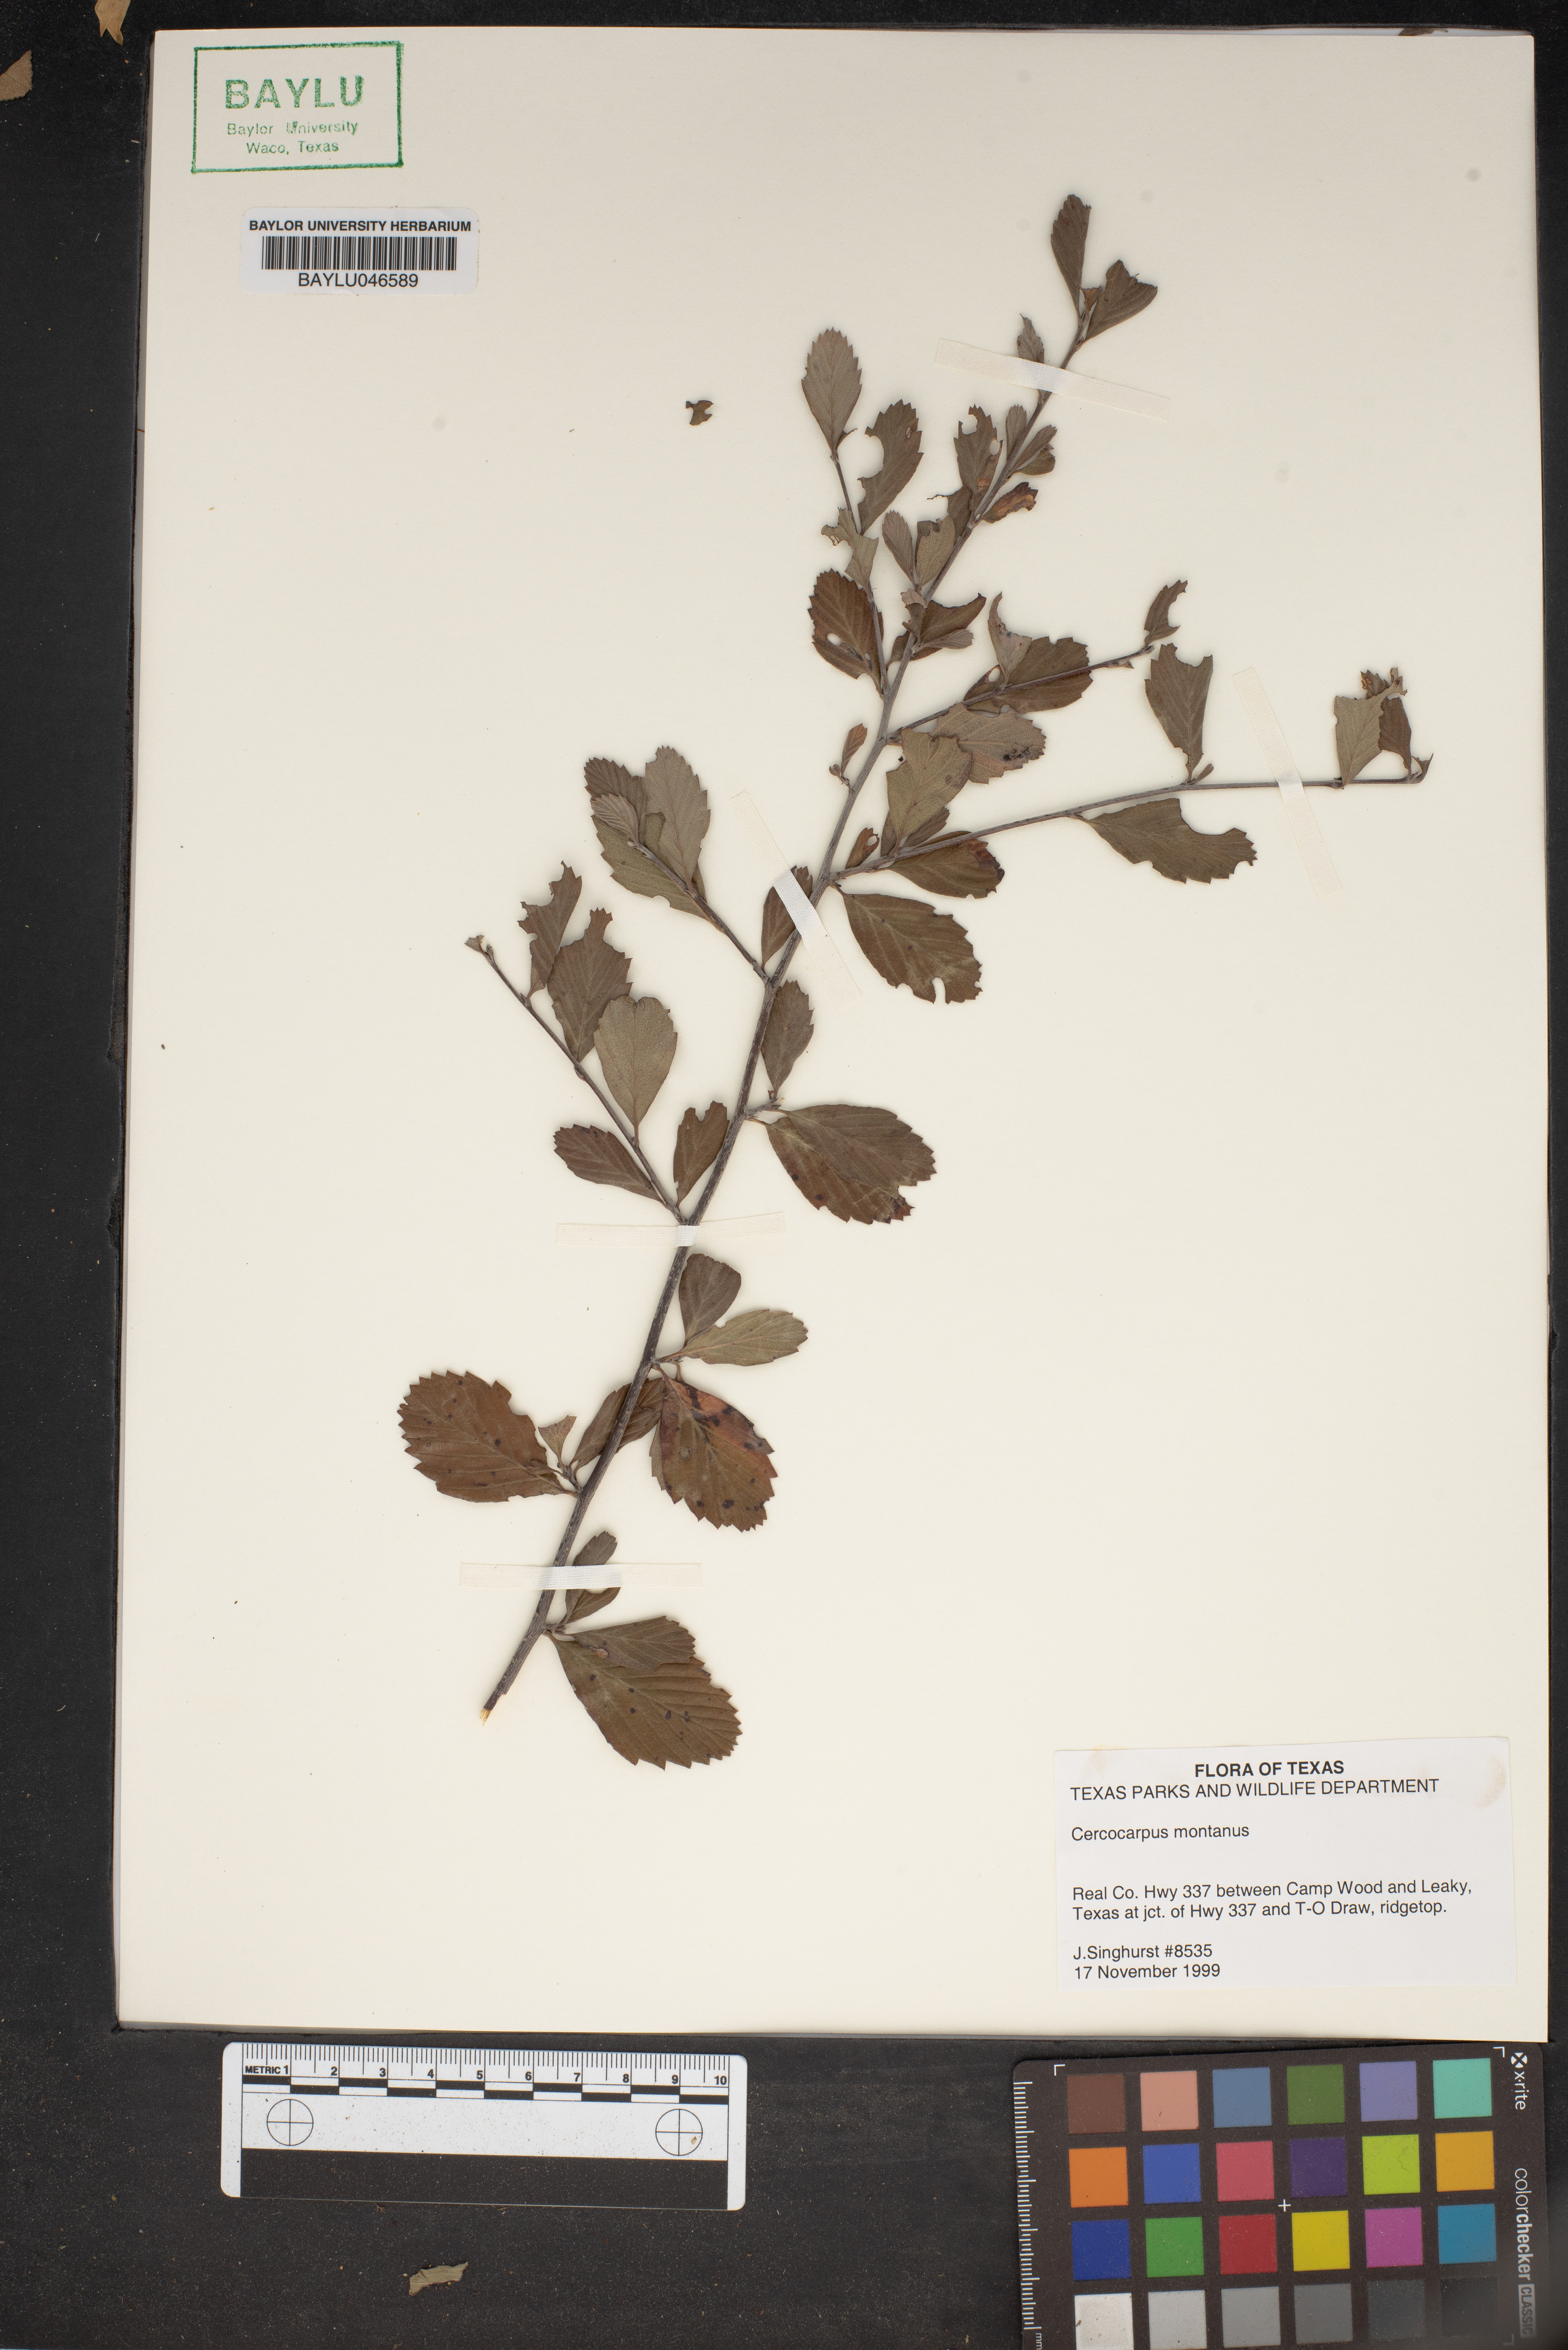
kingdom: Plantae
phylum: Tracheophyta
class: Magnoliopsida
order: Rosales
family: Rosaceae
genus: Cercocarpus
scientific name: Cercocarpus montanus
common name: Alder-leaf cercocarpus
